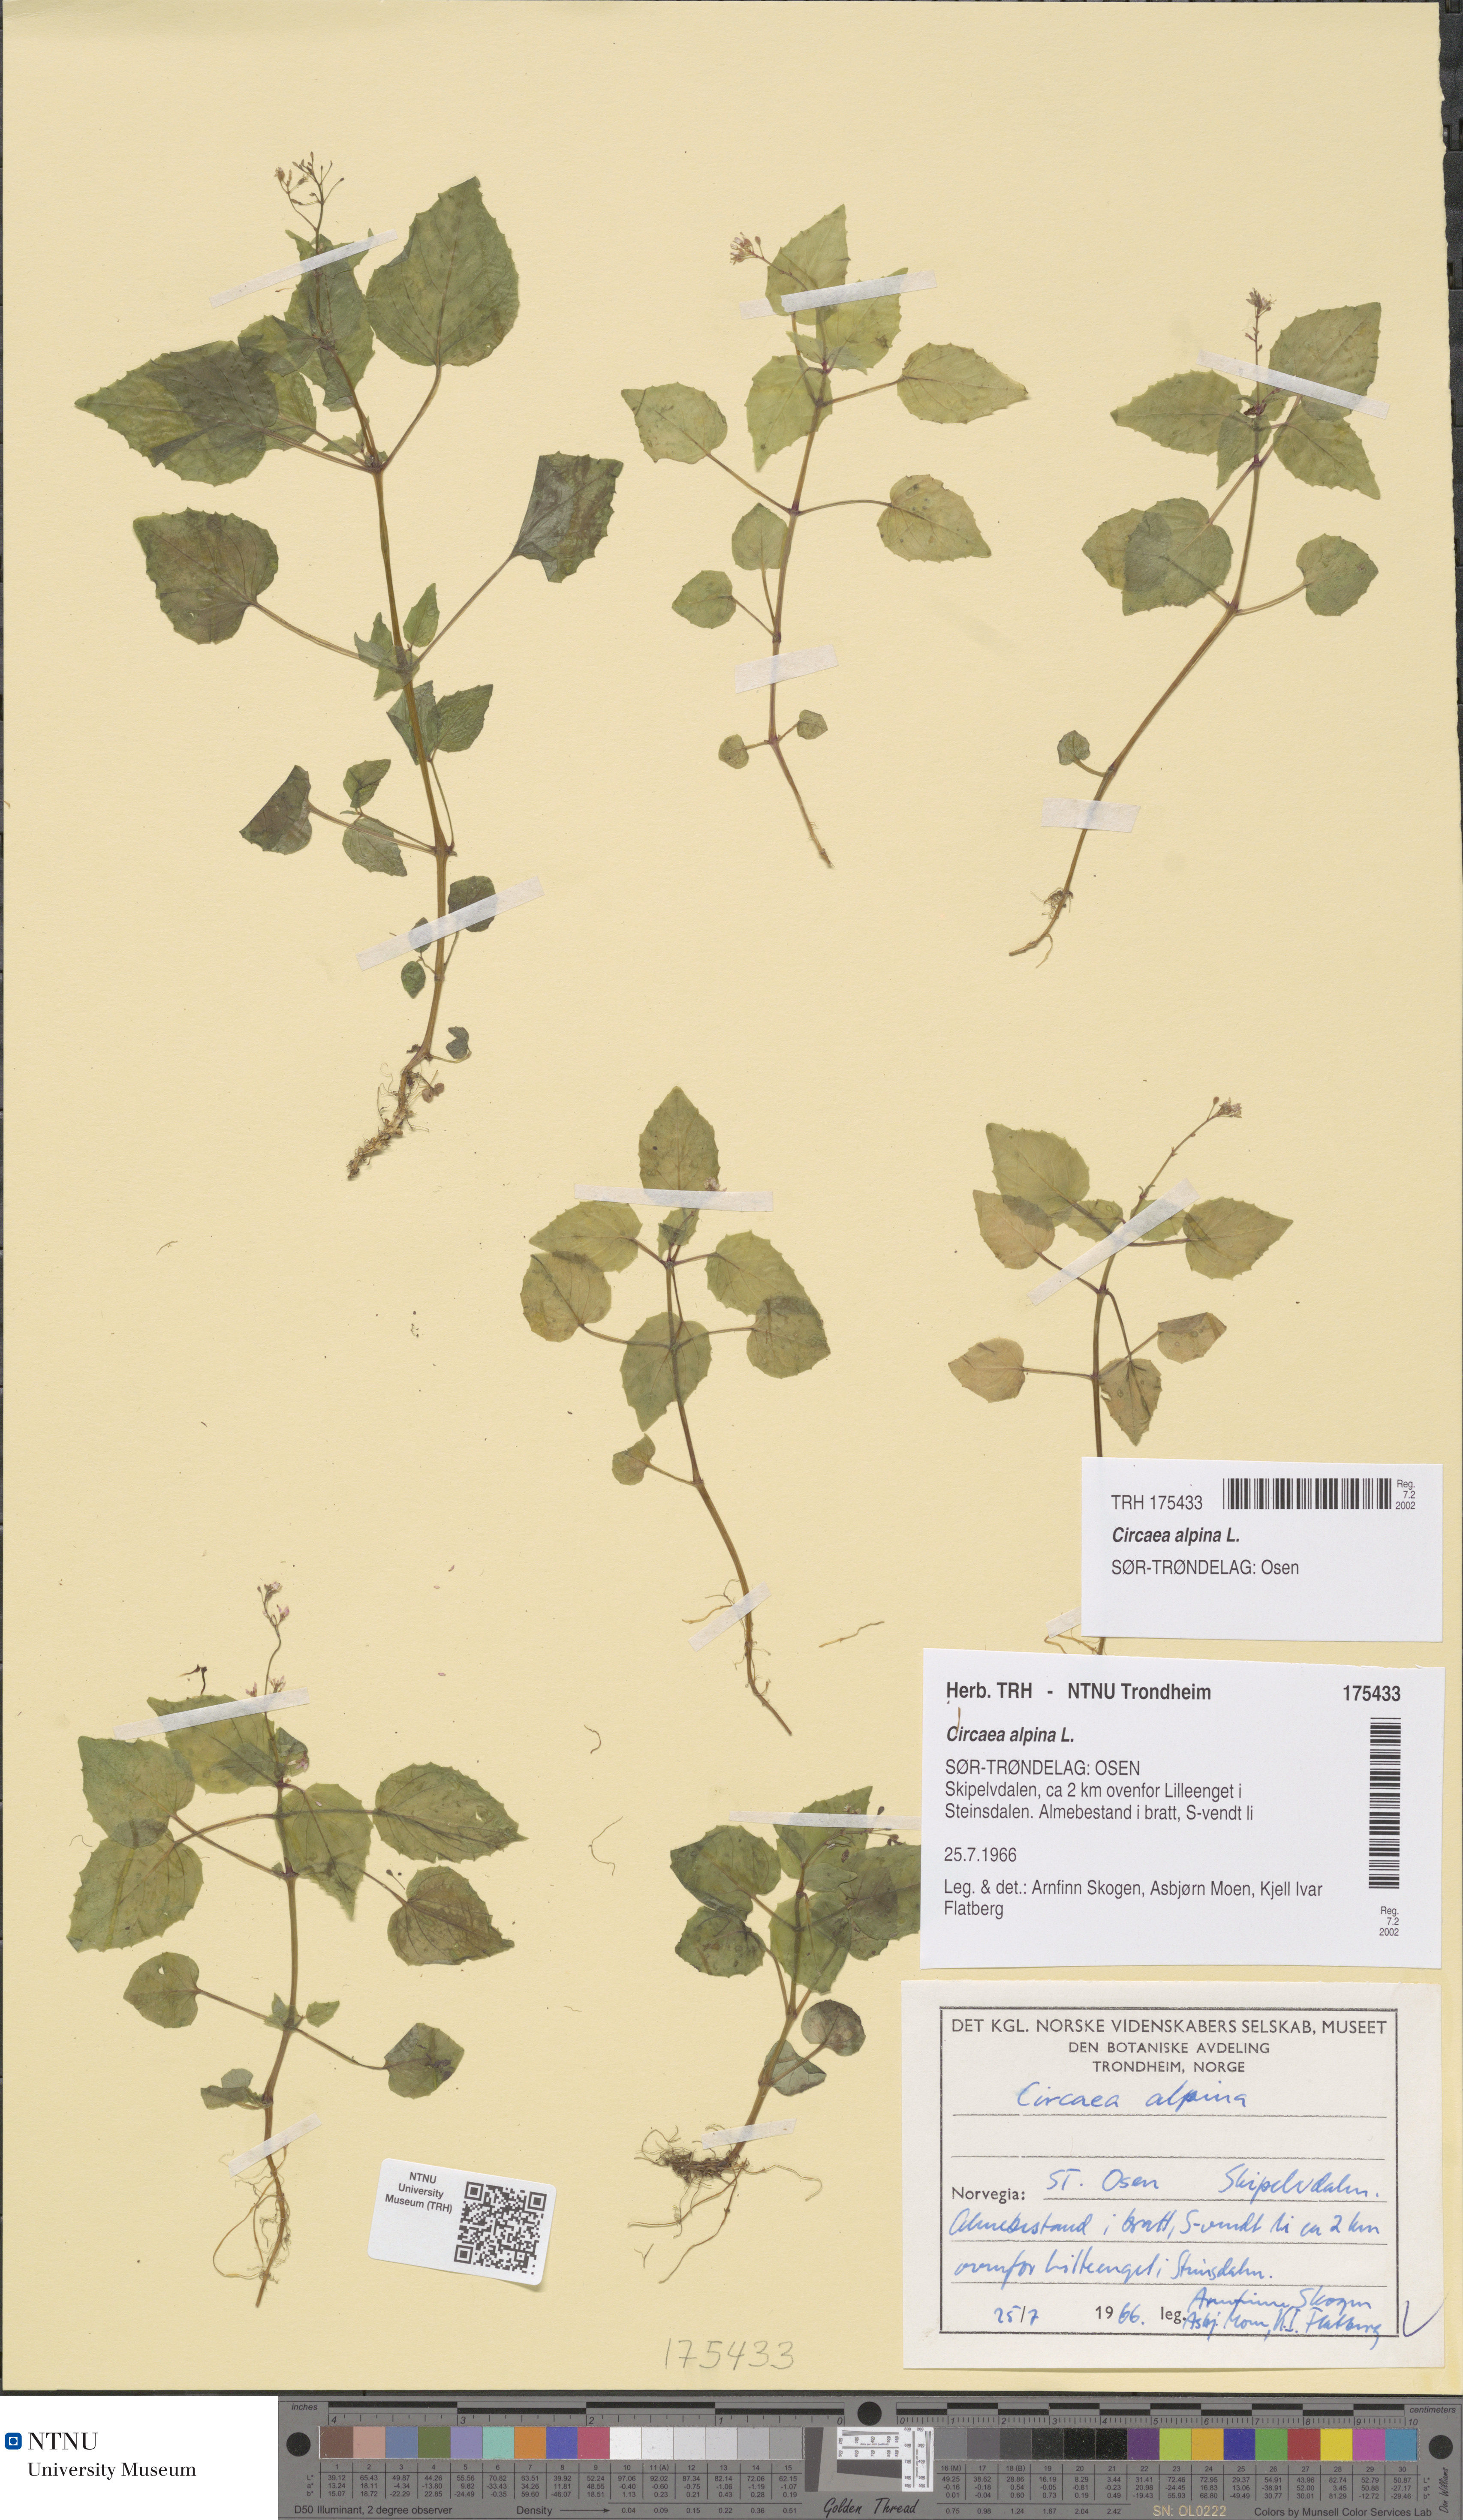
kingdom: Plantae
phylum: Tracheophyta
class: Magnoliopsida
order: Myrtales
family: Onagraceae
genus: Circaea
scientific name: Circaea alpina
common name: Alpine enchanter's-nightshade
